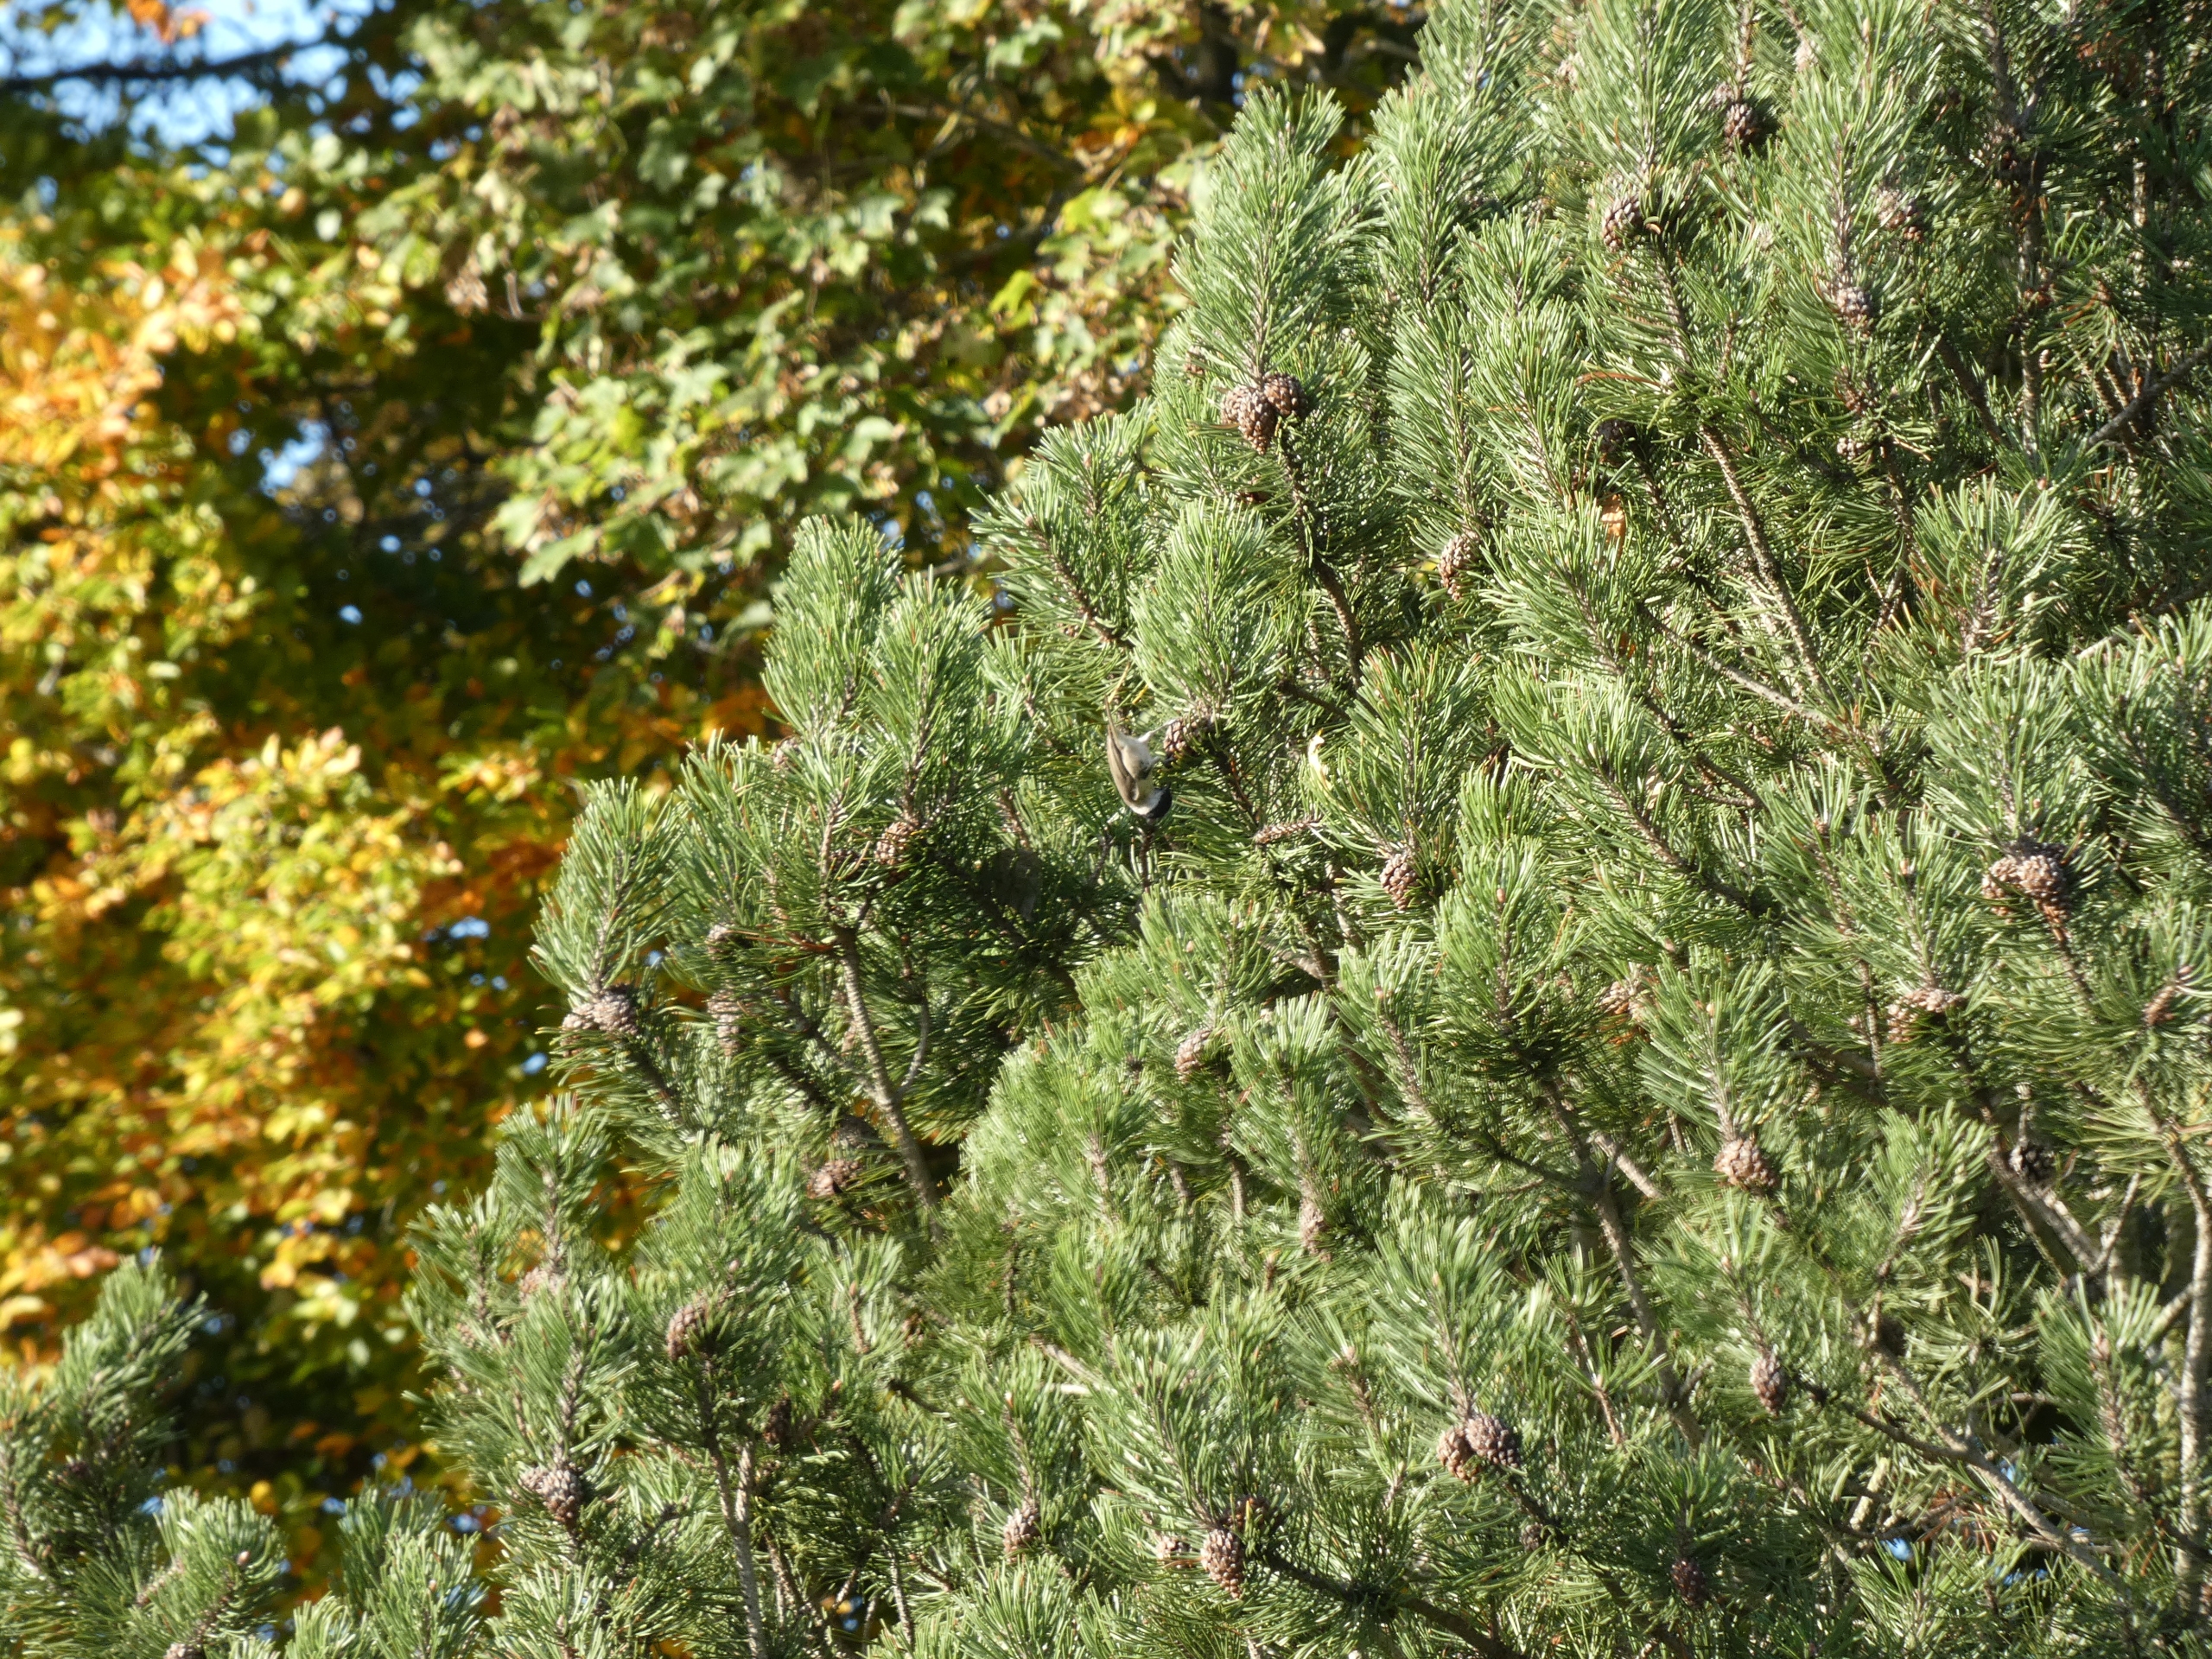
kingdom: Animalia
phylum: Chordata
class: Aves
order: Passeriformes
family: Paridae
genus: Poecile
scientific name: Poecile palustris
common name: Sumpmejse
